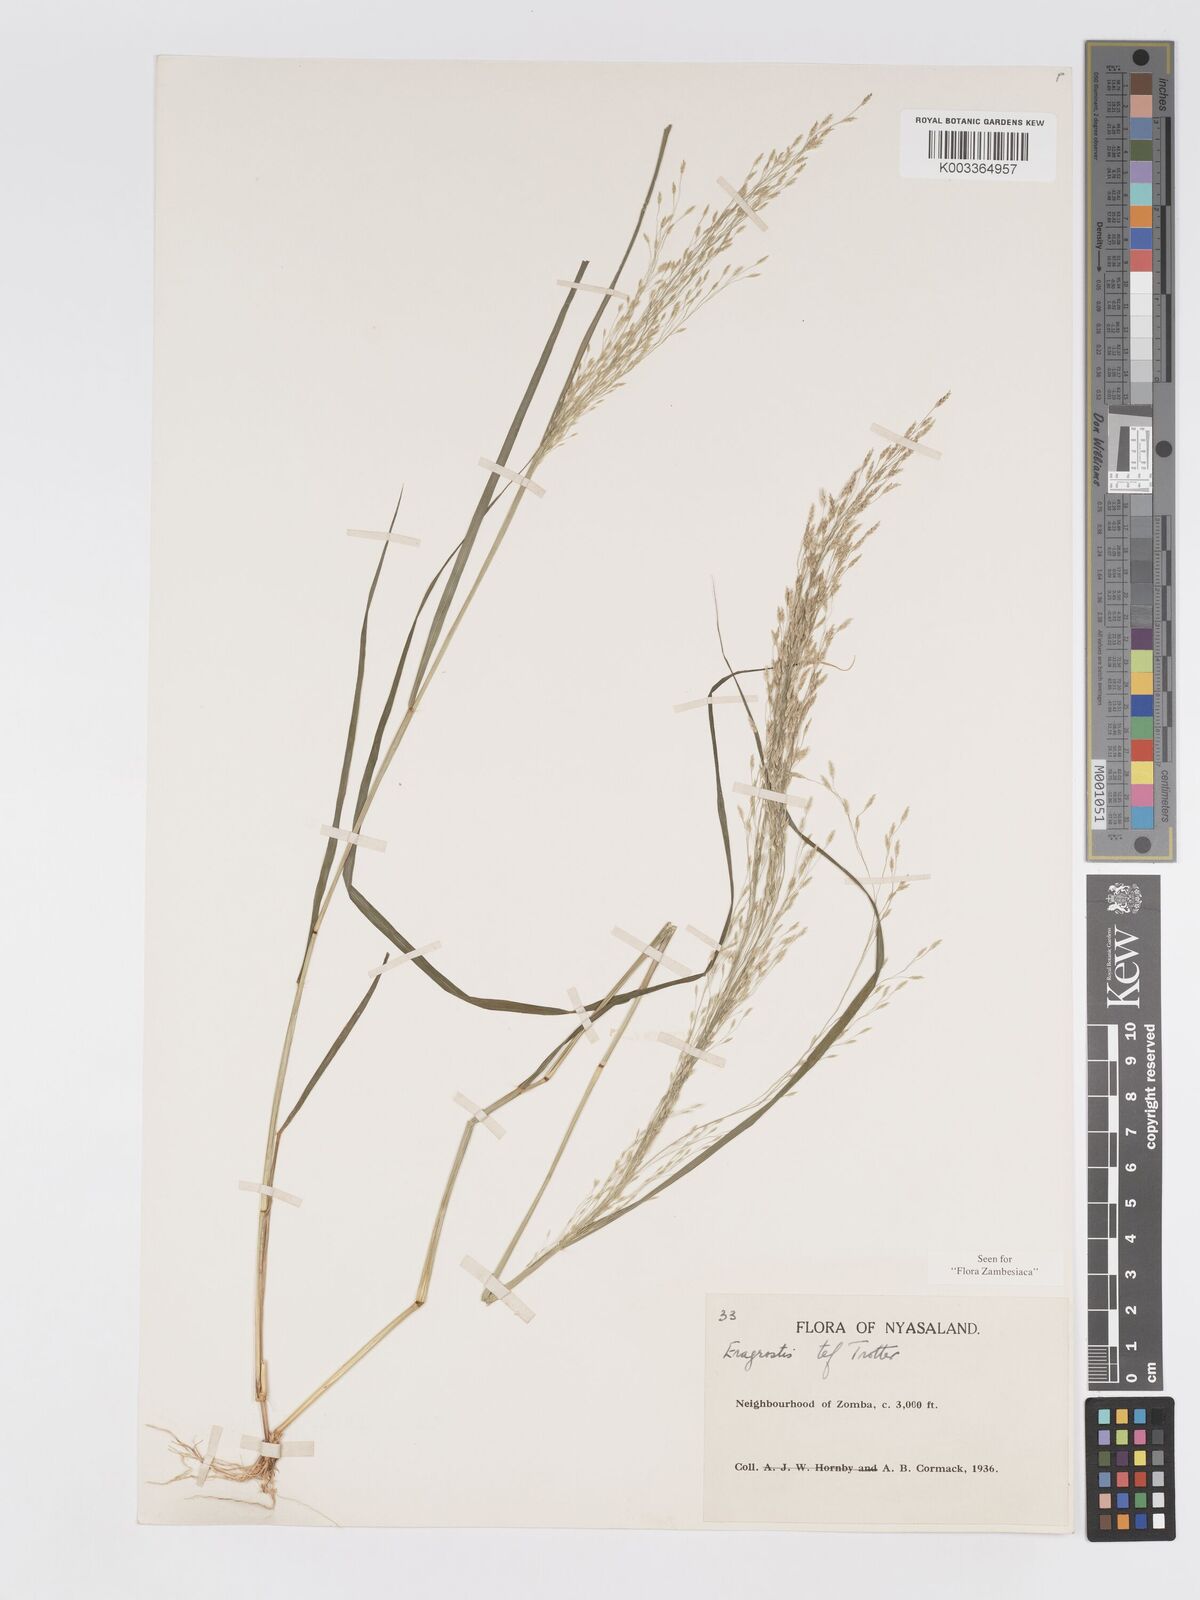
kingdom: Plantae
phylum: Tracheophyta
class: Liliopsida
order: Poales
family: Poaceae
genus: Eragrostis
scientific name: Eragrostis tef
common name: Teff
